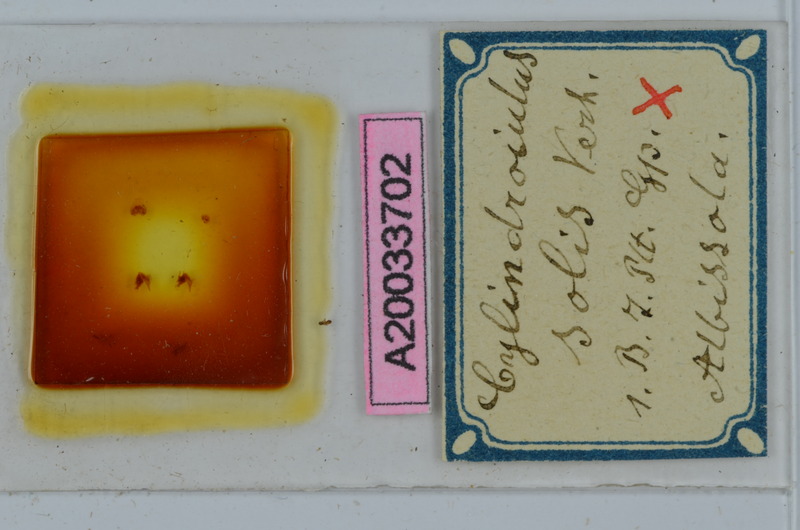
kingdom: Animalia
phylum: Arthropoda
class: Diplopoda
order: Julida
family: Julidae
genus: Cylindroiulus
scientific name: Cylindroiulus solis
